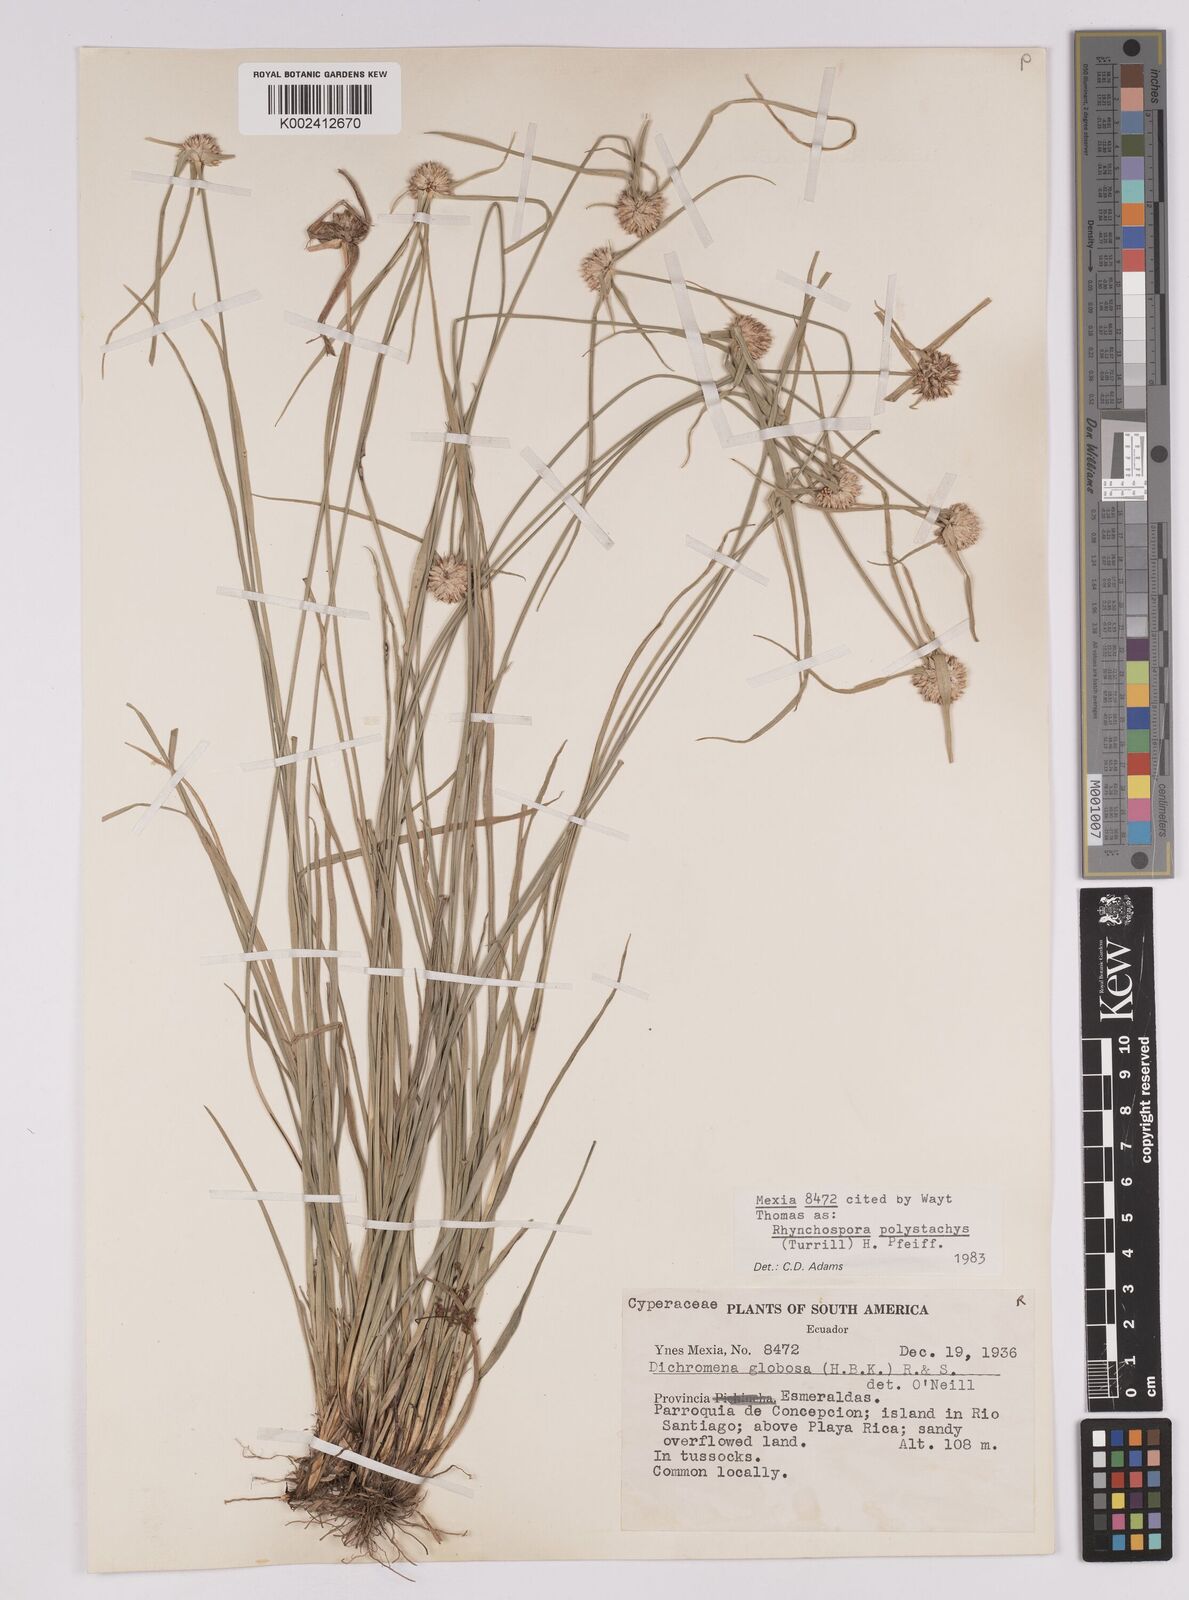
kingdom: Plantae
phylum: Tracheophyta
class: Liliopsida
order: Poales
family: Cyperaceae
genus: Rhynchospora
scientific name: Rhynchospora polystachys
